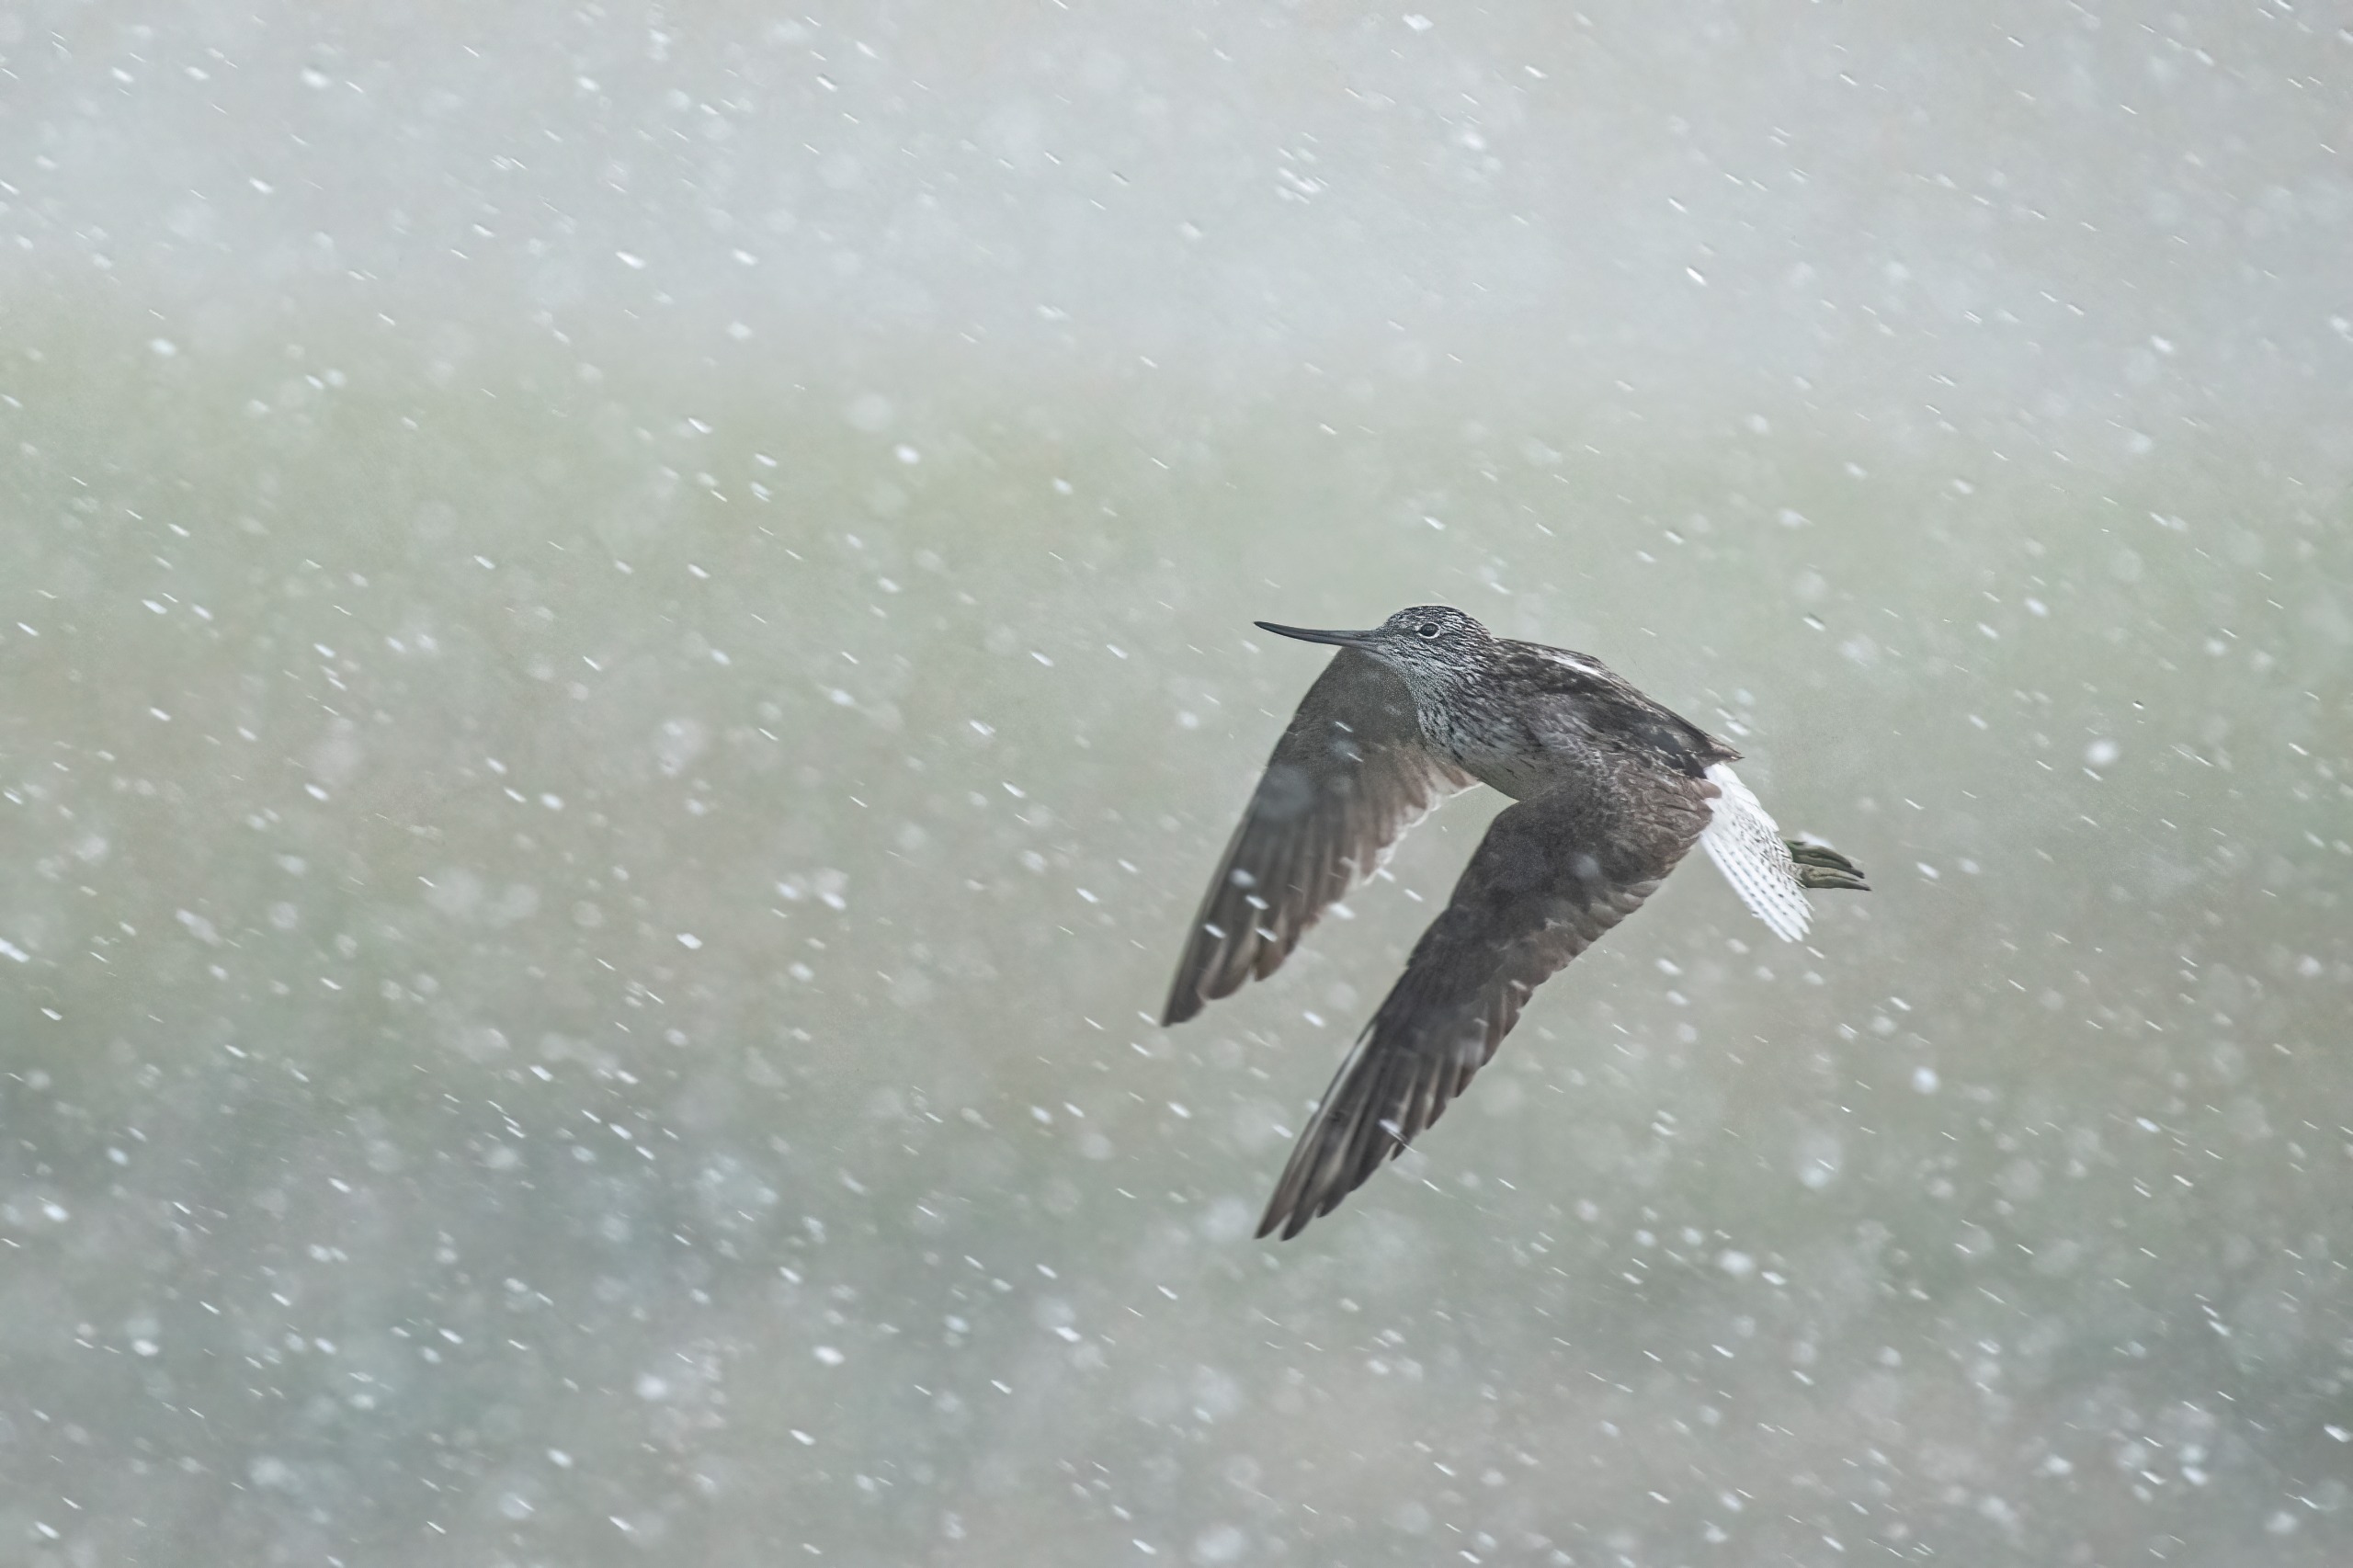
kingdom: Animalia
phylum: Chordata
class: Aves
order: Charadriiformes
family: Scolopacidae
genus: Tringa
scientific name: Tringa nebularia
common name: Hvidklire
